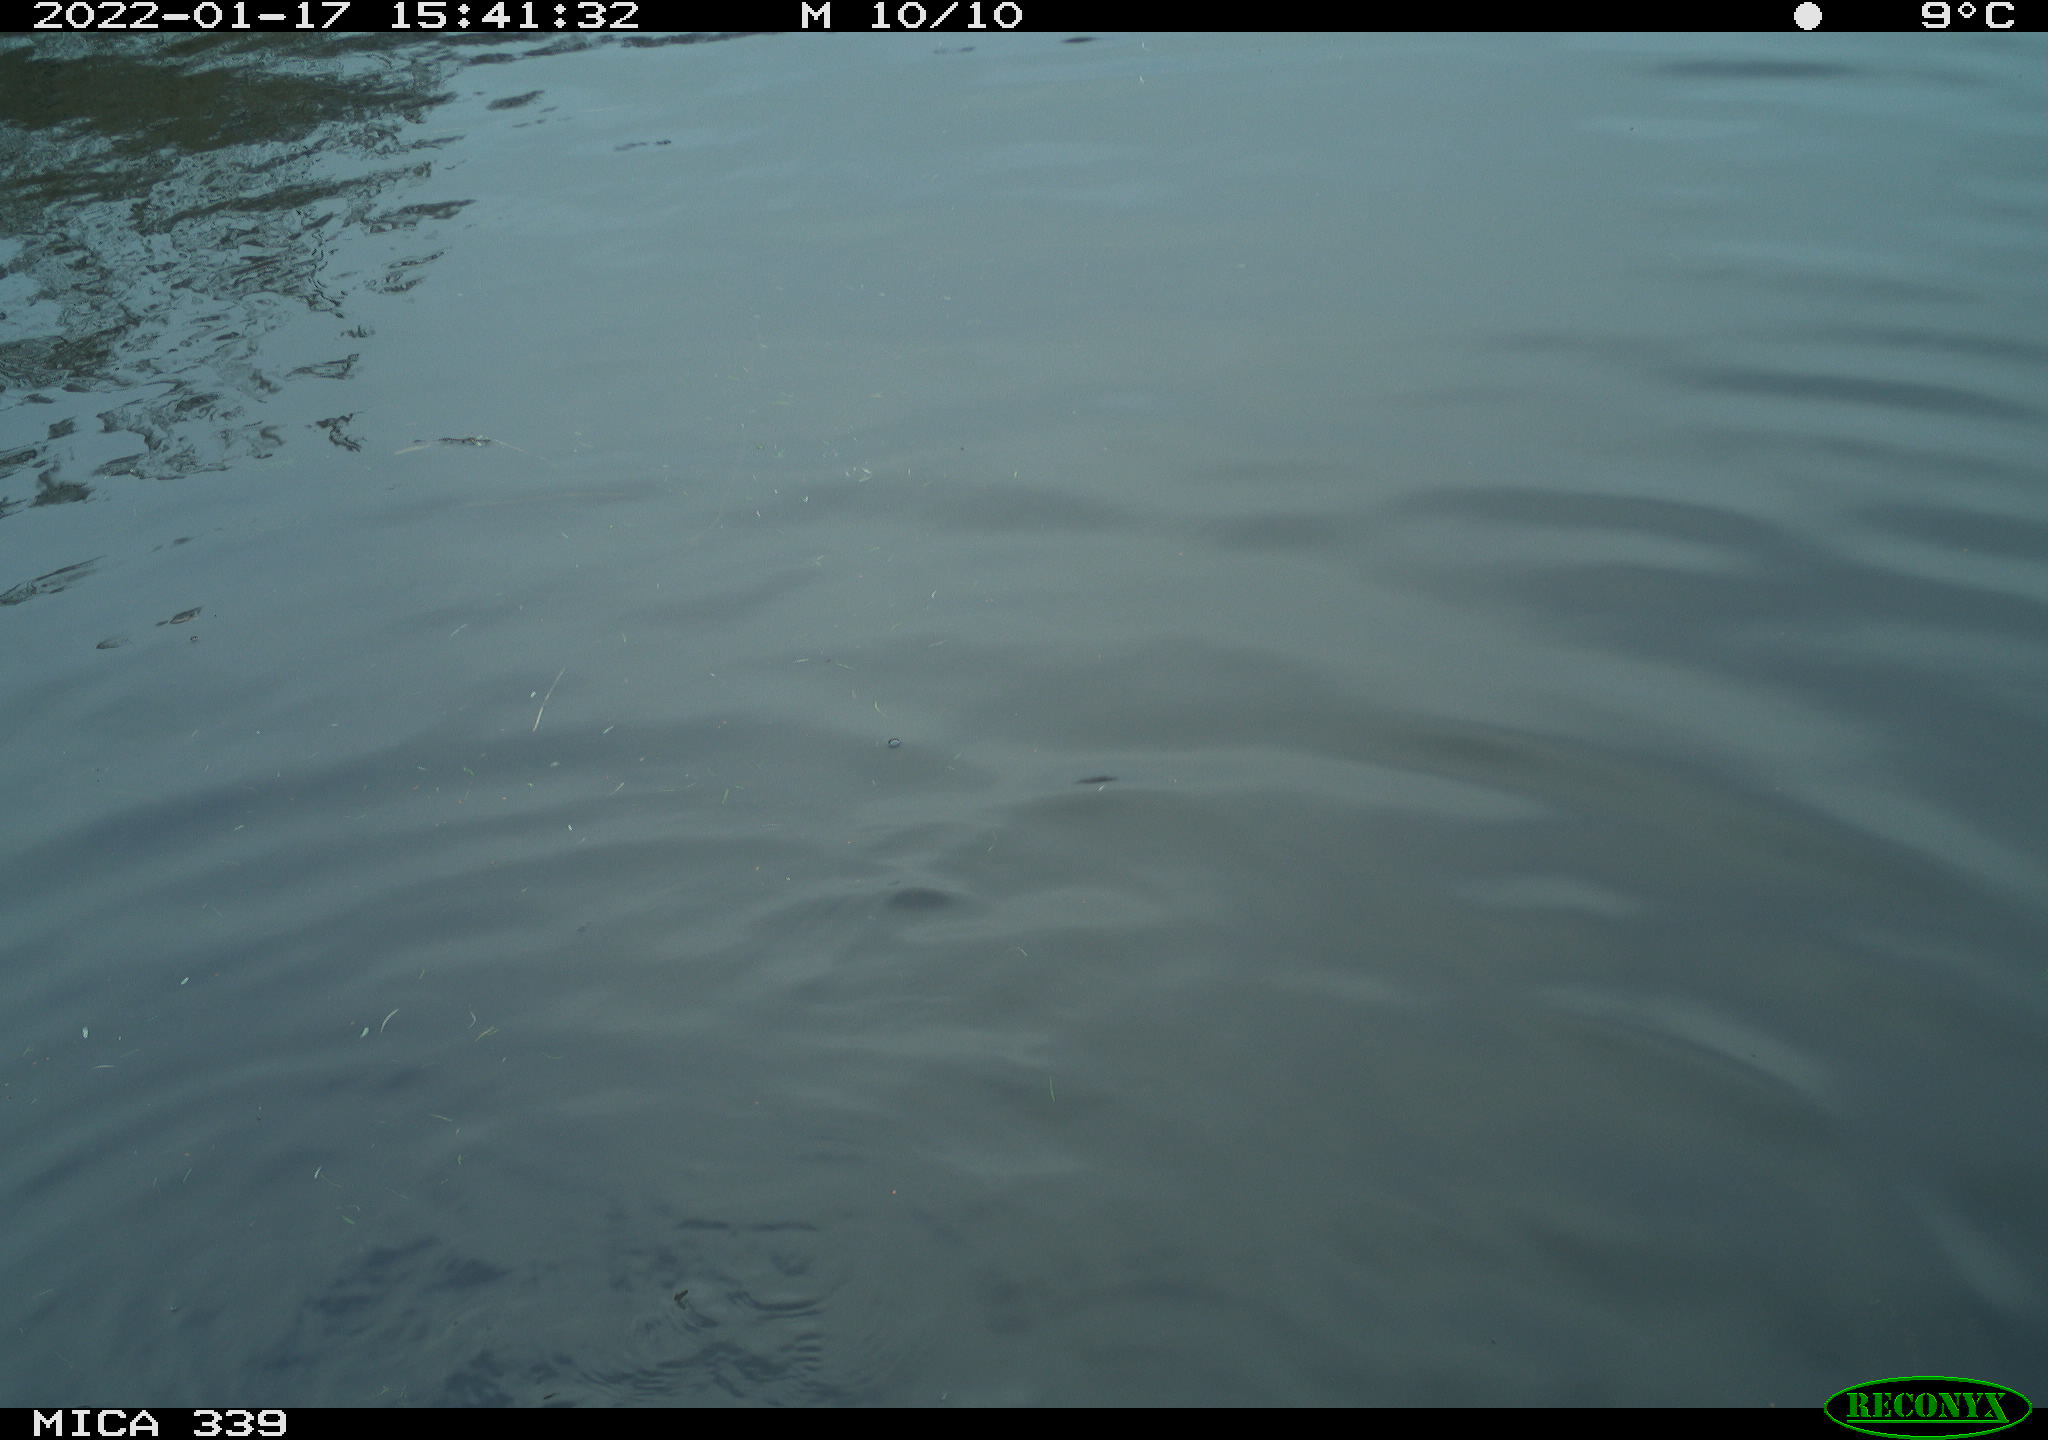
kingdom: Animalia
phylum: Chordata
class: Aves
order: Suliformes
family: Phalacrocoracidae
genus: Phalacrocorax
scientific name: Phalacrocorax carbo
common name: Great cormorant
